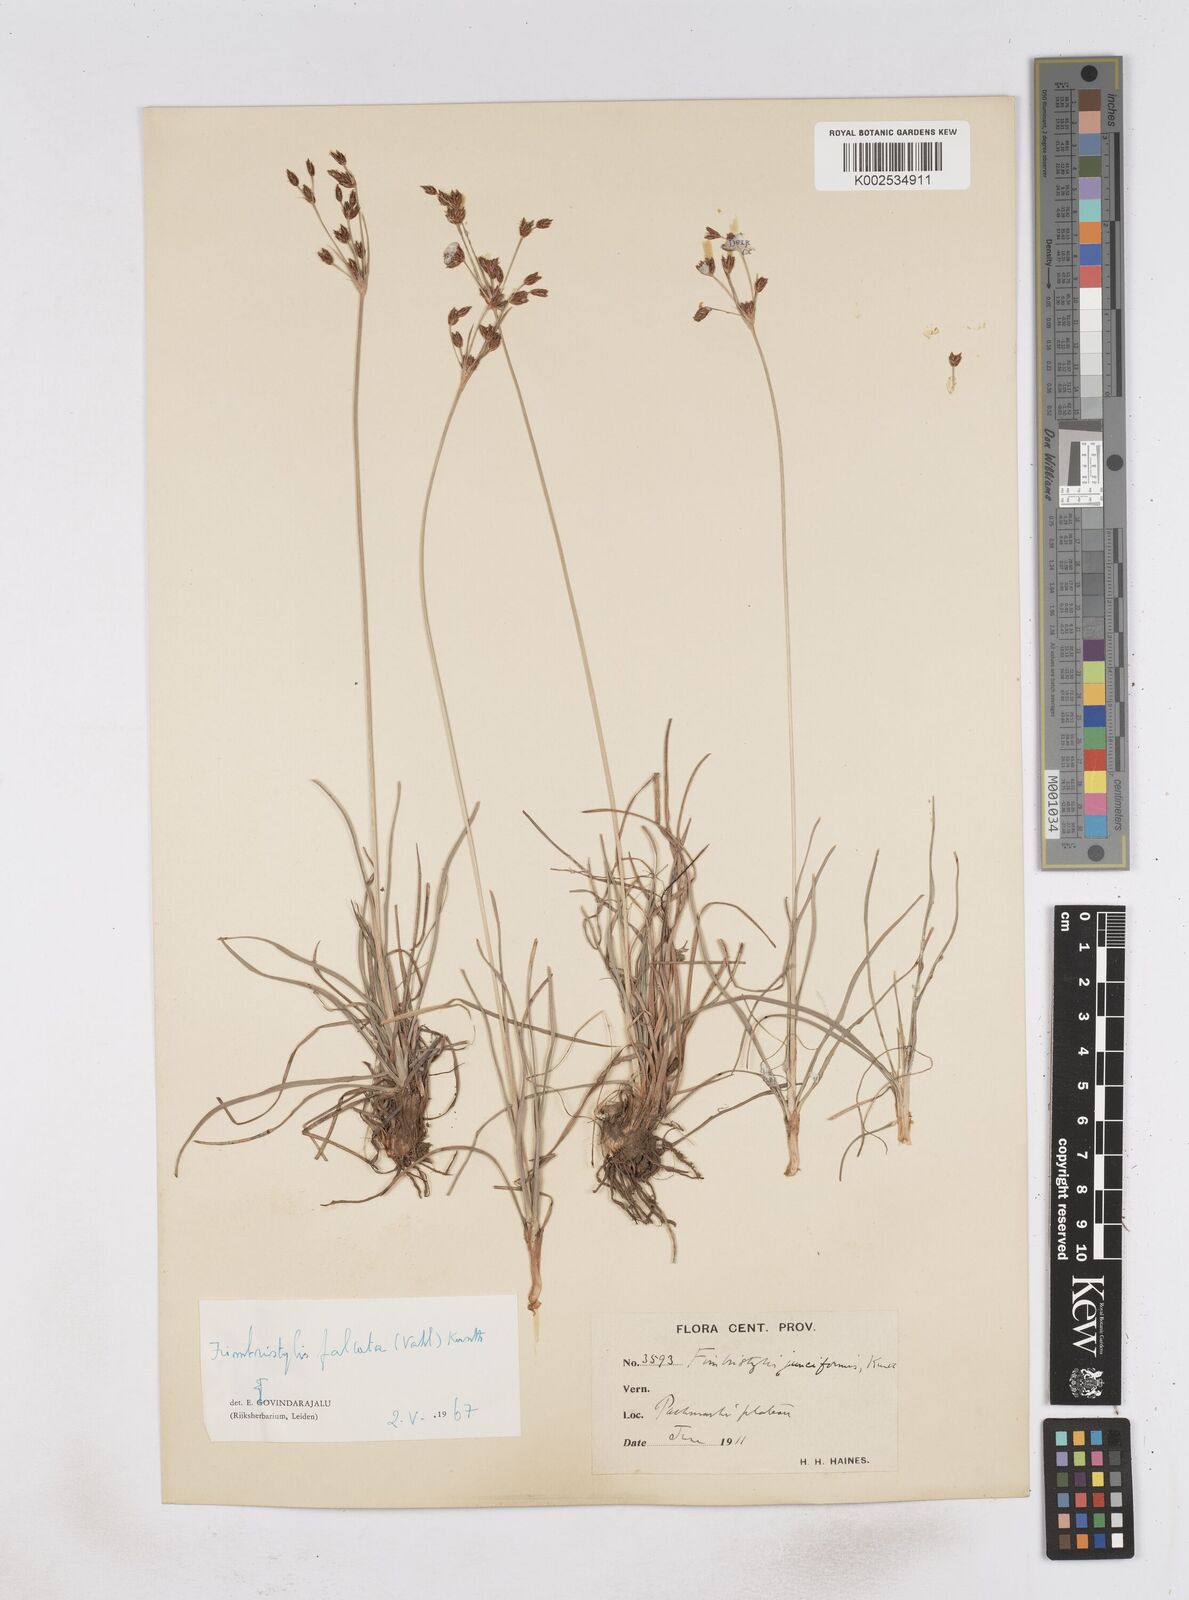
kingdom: Plantae
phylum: Tracheophyta
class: Liliopsida
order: Poales
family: Cyperaceae
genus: Fimbristylis
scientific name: Fimbristylis falcata
